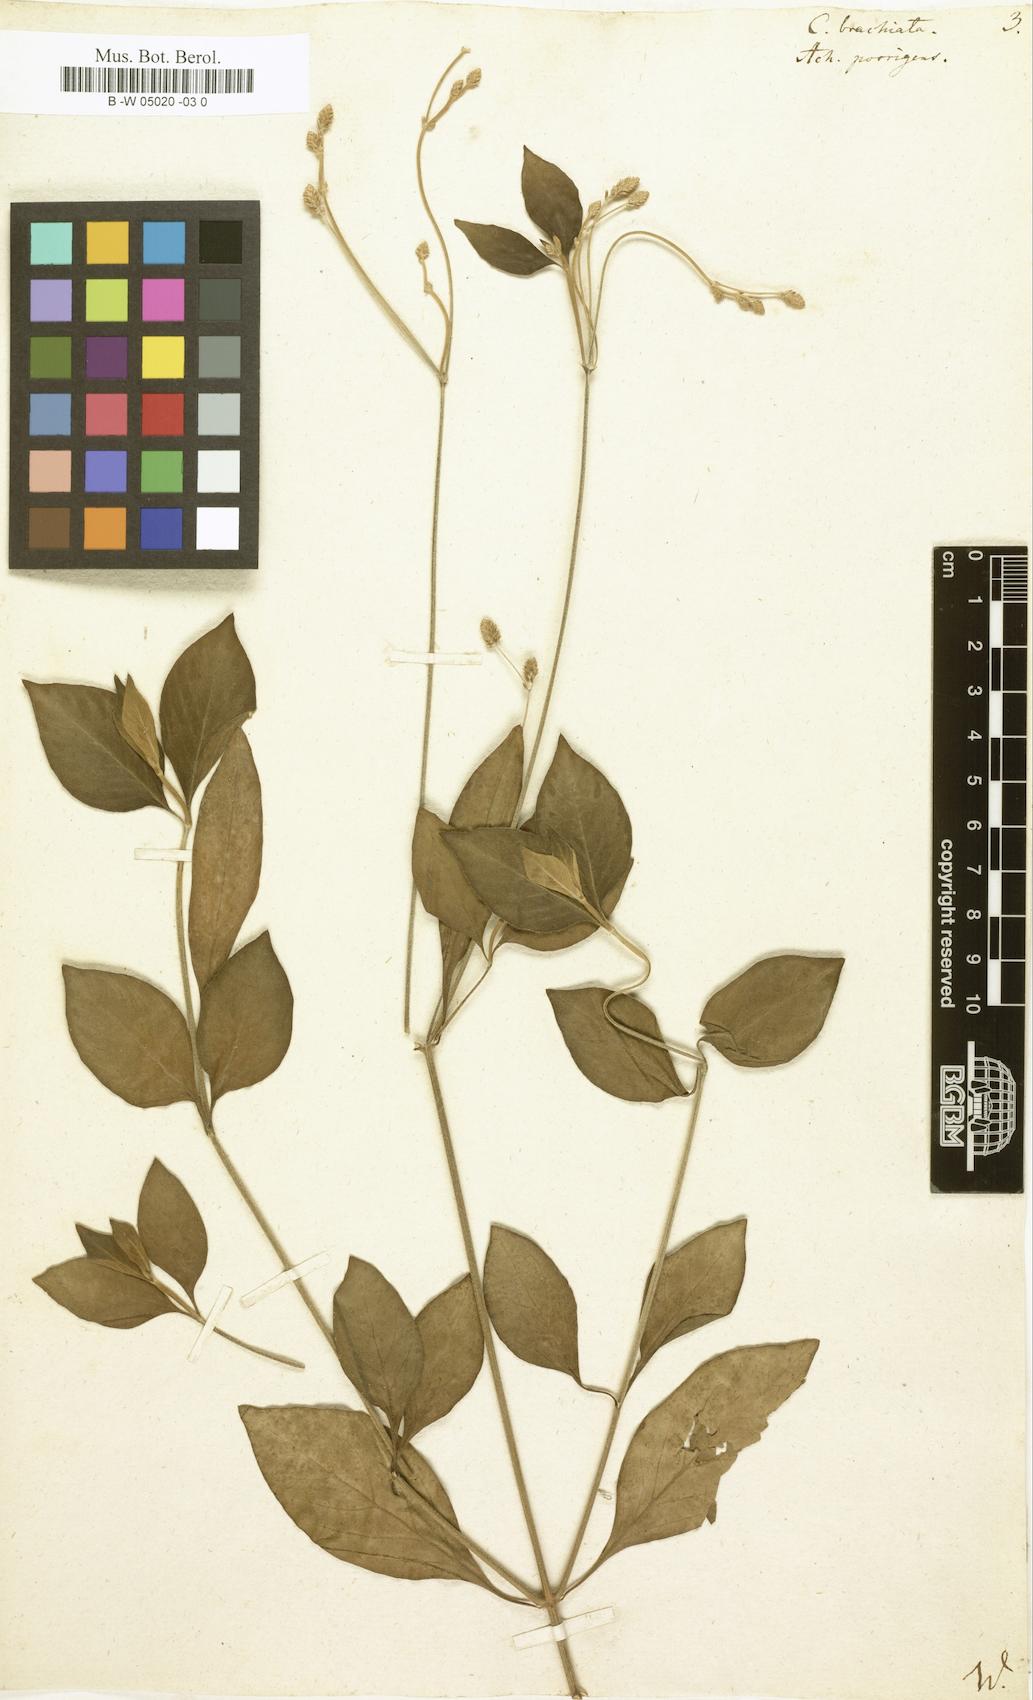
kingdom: Plantae
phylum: Tracheophyta
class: Magnoliopsida
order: Caryophyllales
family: Amaranthaceae
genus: Celosia
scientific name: Celosia
